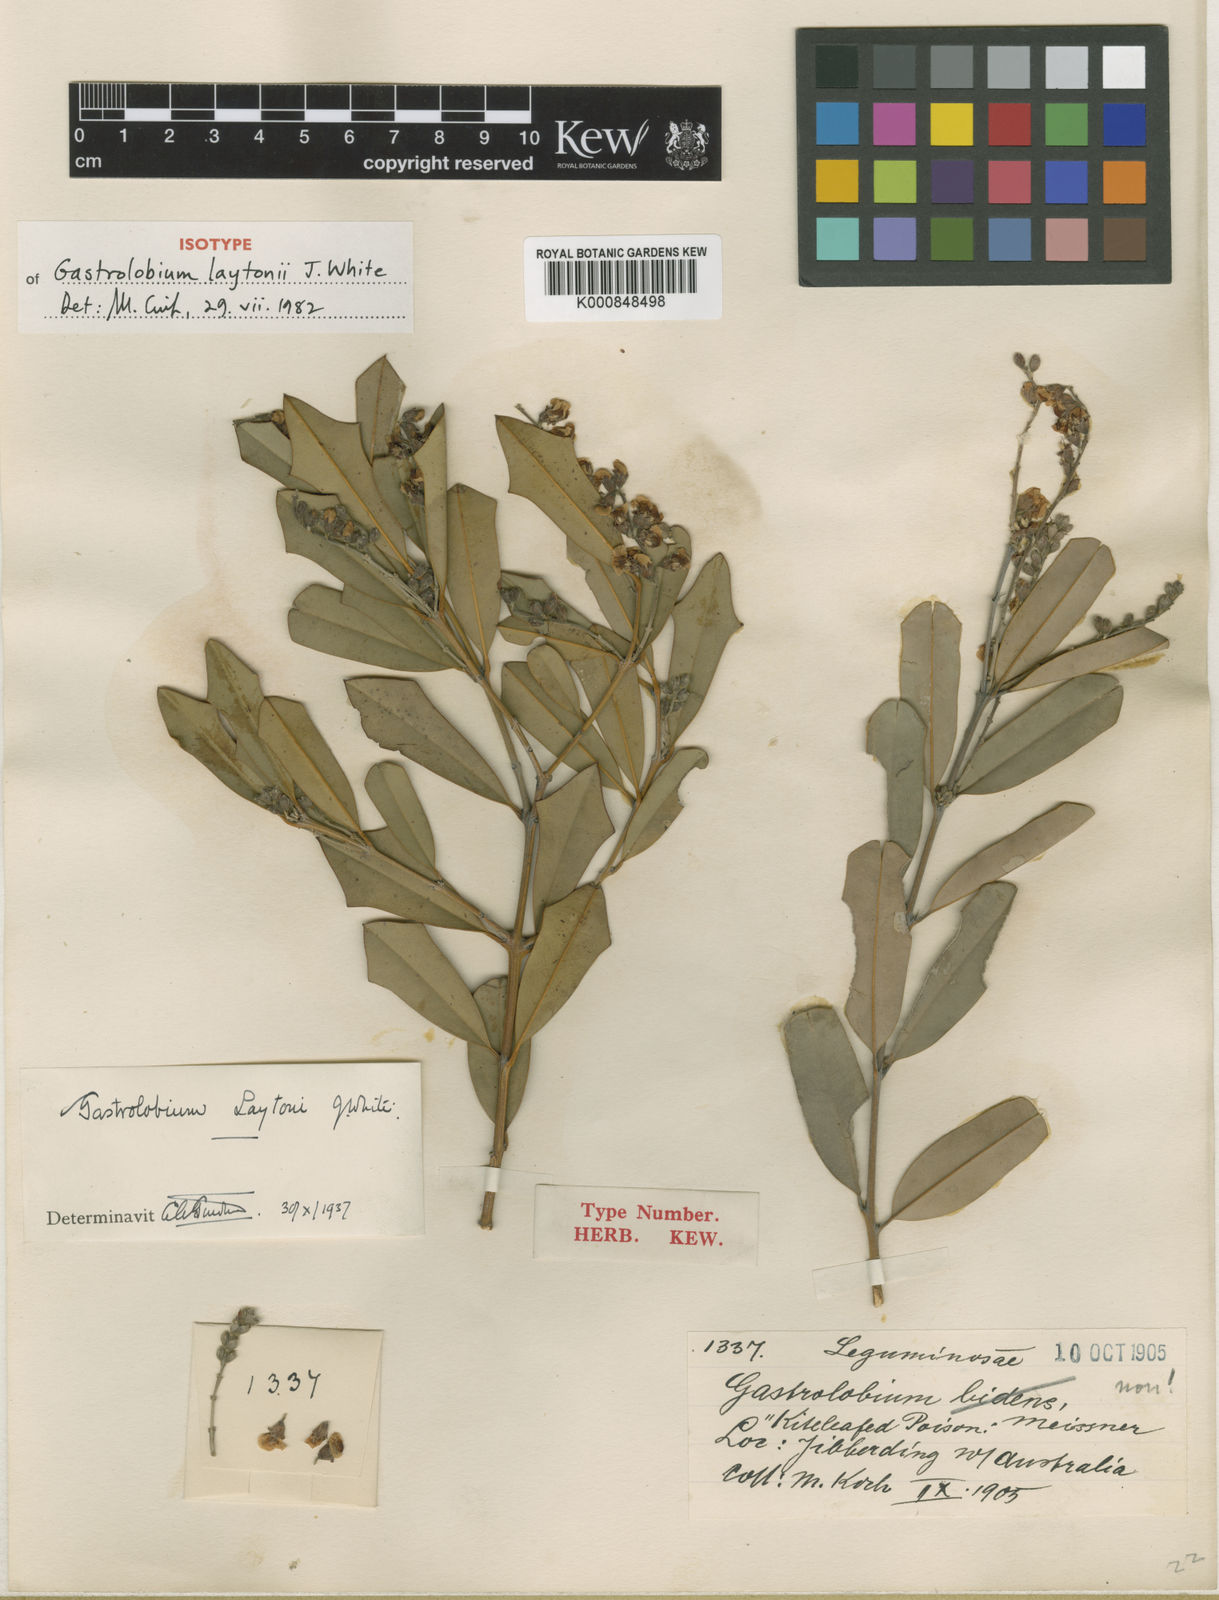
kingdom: Plantae
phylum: Tracheophyta
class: Magnoliopsida
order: Fabales
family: Fabaceae
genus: Gastrolobium
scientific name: Gastrolobium laytonii
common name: Breelya poison
